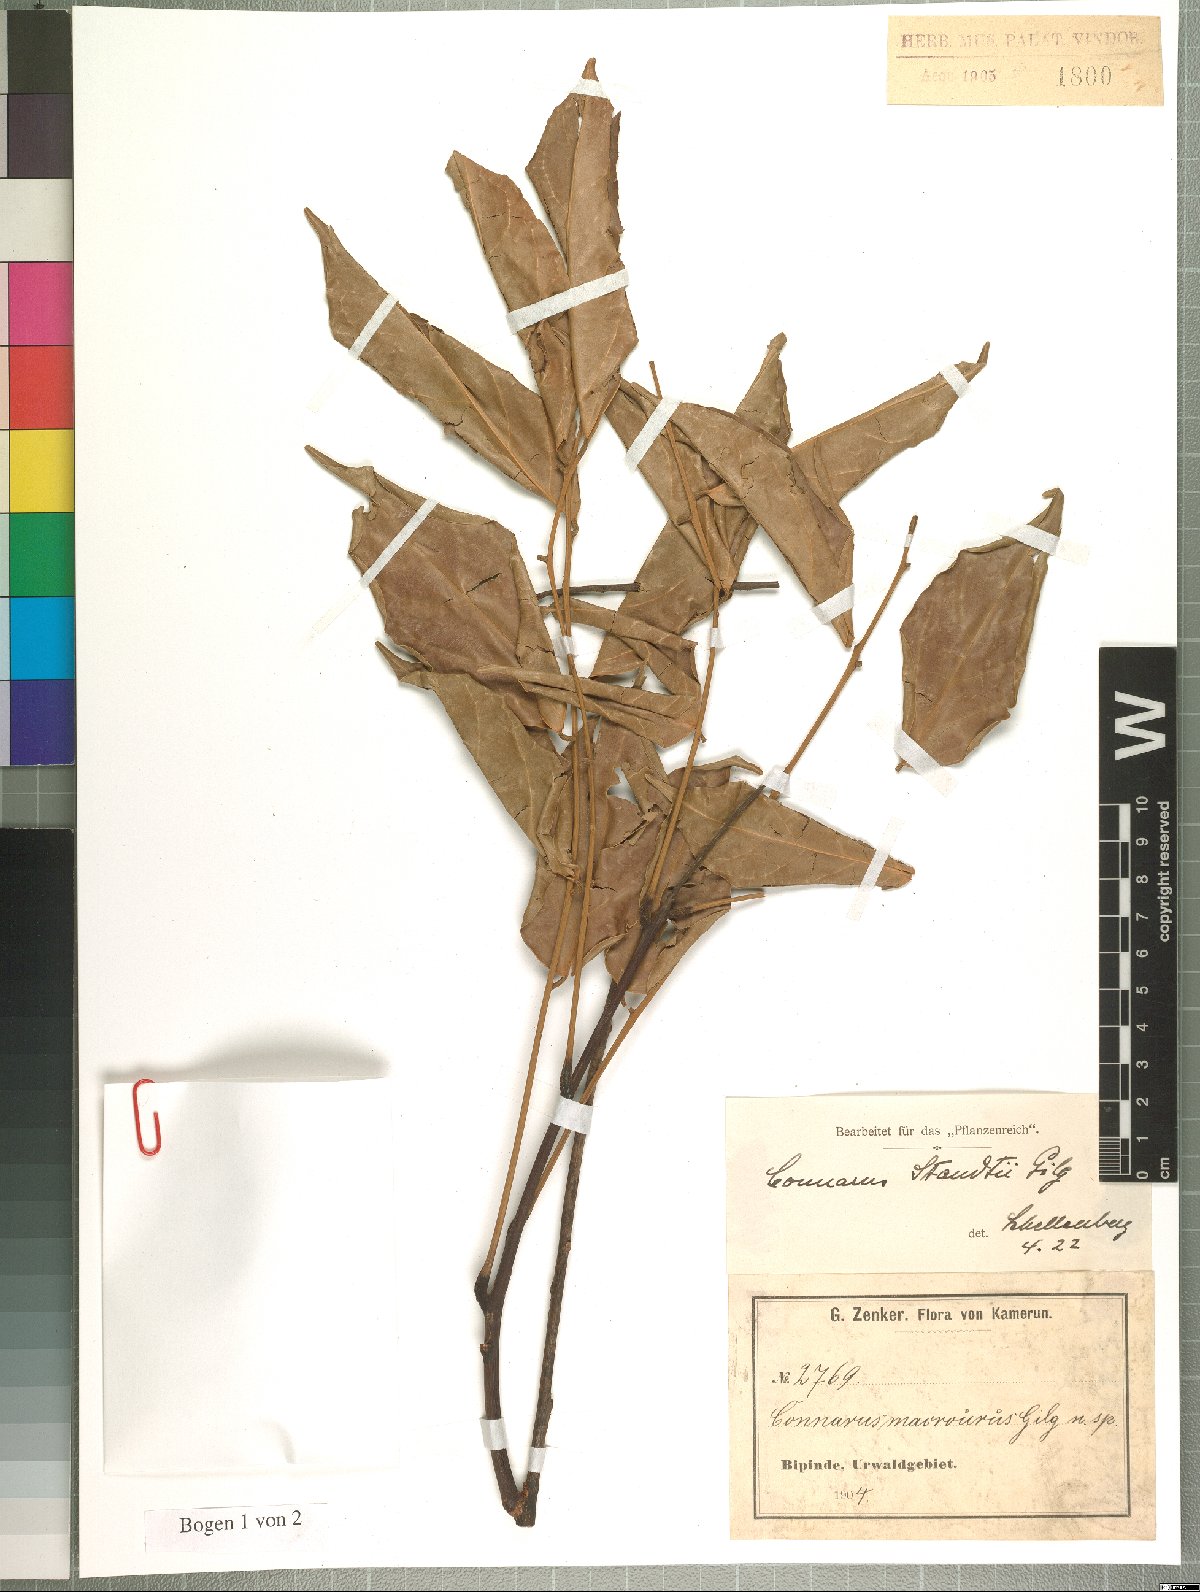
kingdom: Plantae
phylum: Tracheophyta
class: Magnoliopsida
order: Oxalidales
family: Connaraceae
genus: Connarus
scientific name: Connarus staudtii
